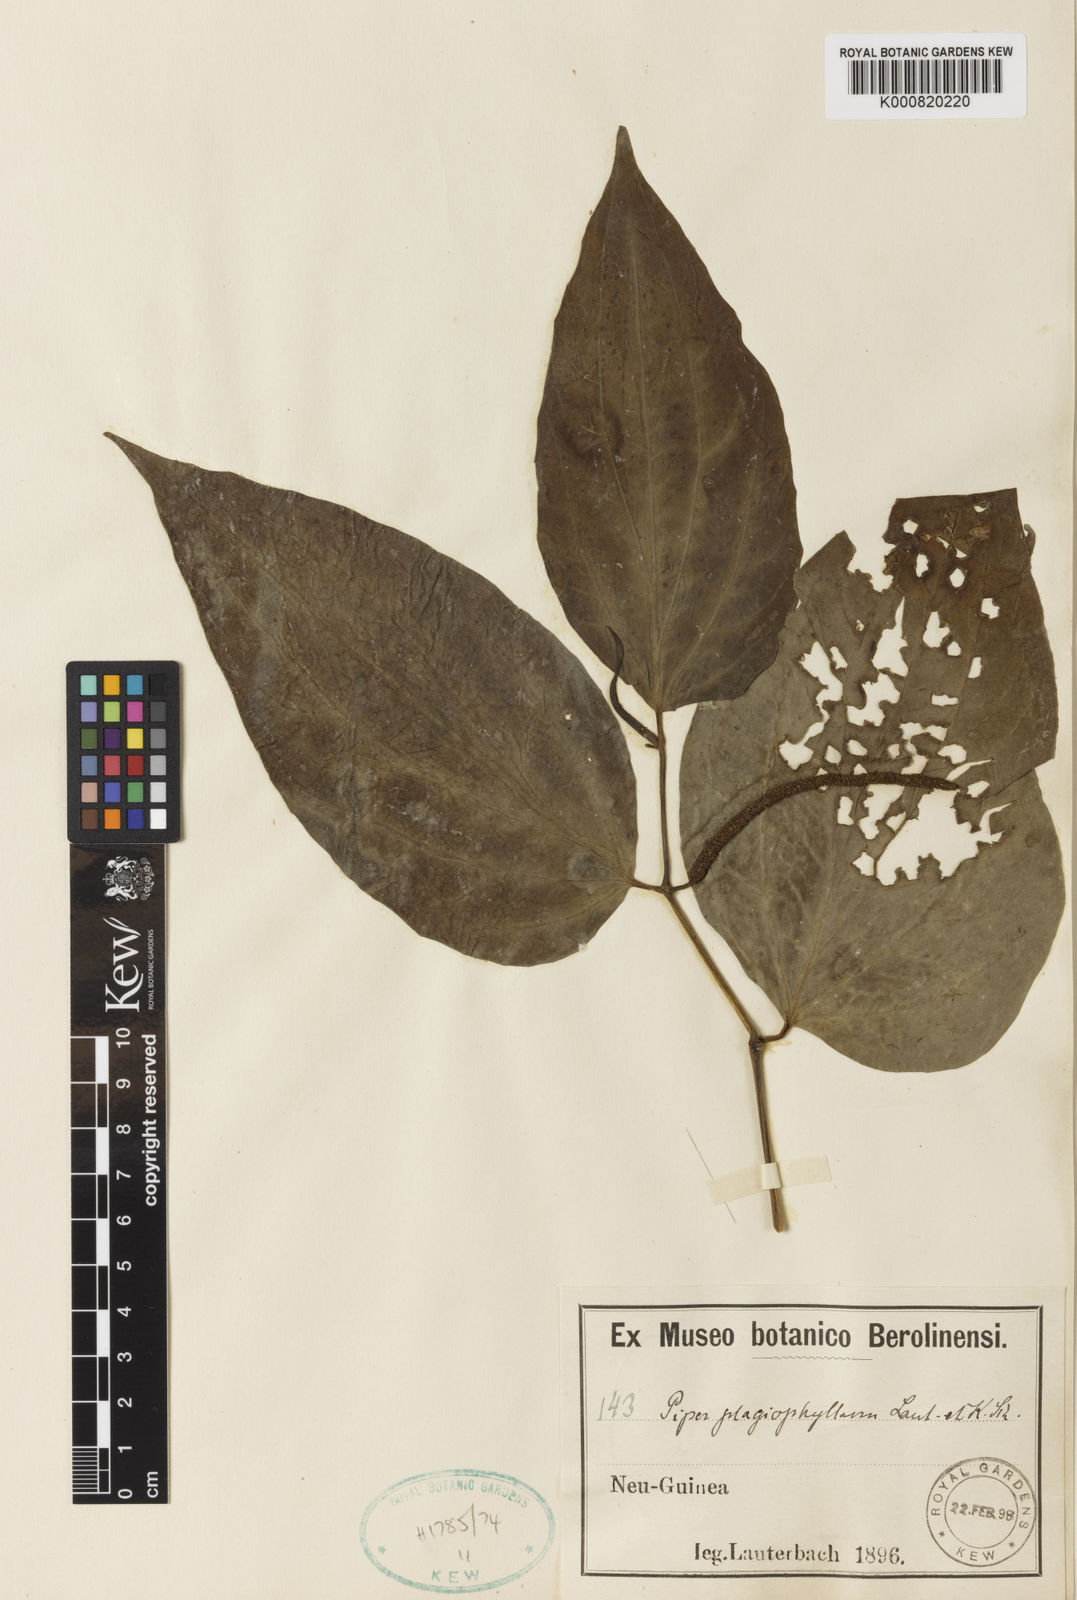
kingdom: Plantae
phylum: Tracheophyta
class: Magnoliopsida
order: Piperales
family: Piperaceae
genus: Piper
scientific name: Piper subbullatum
